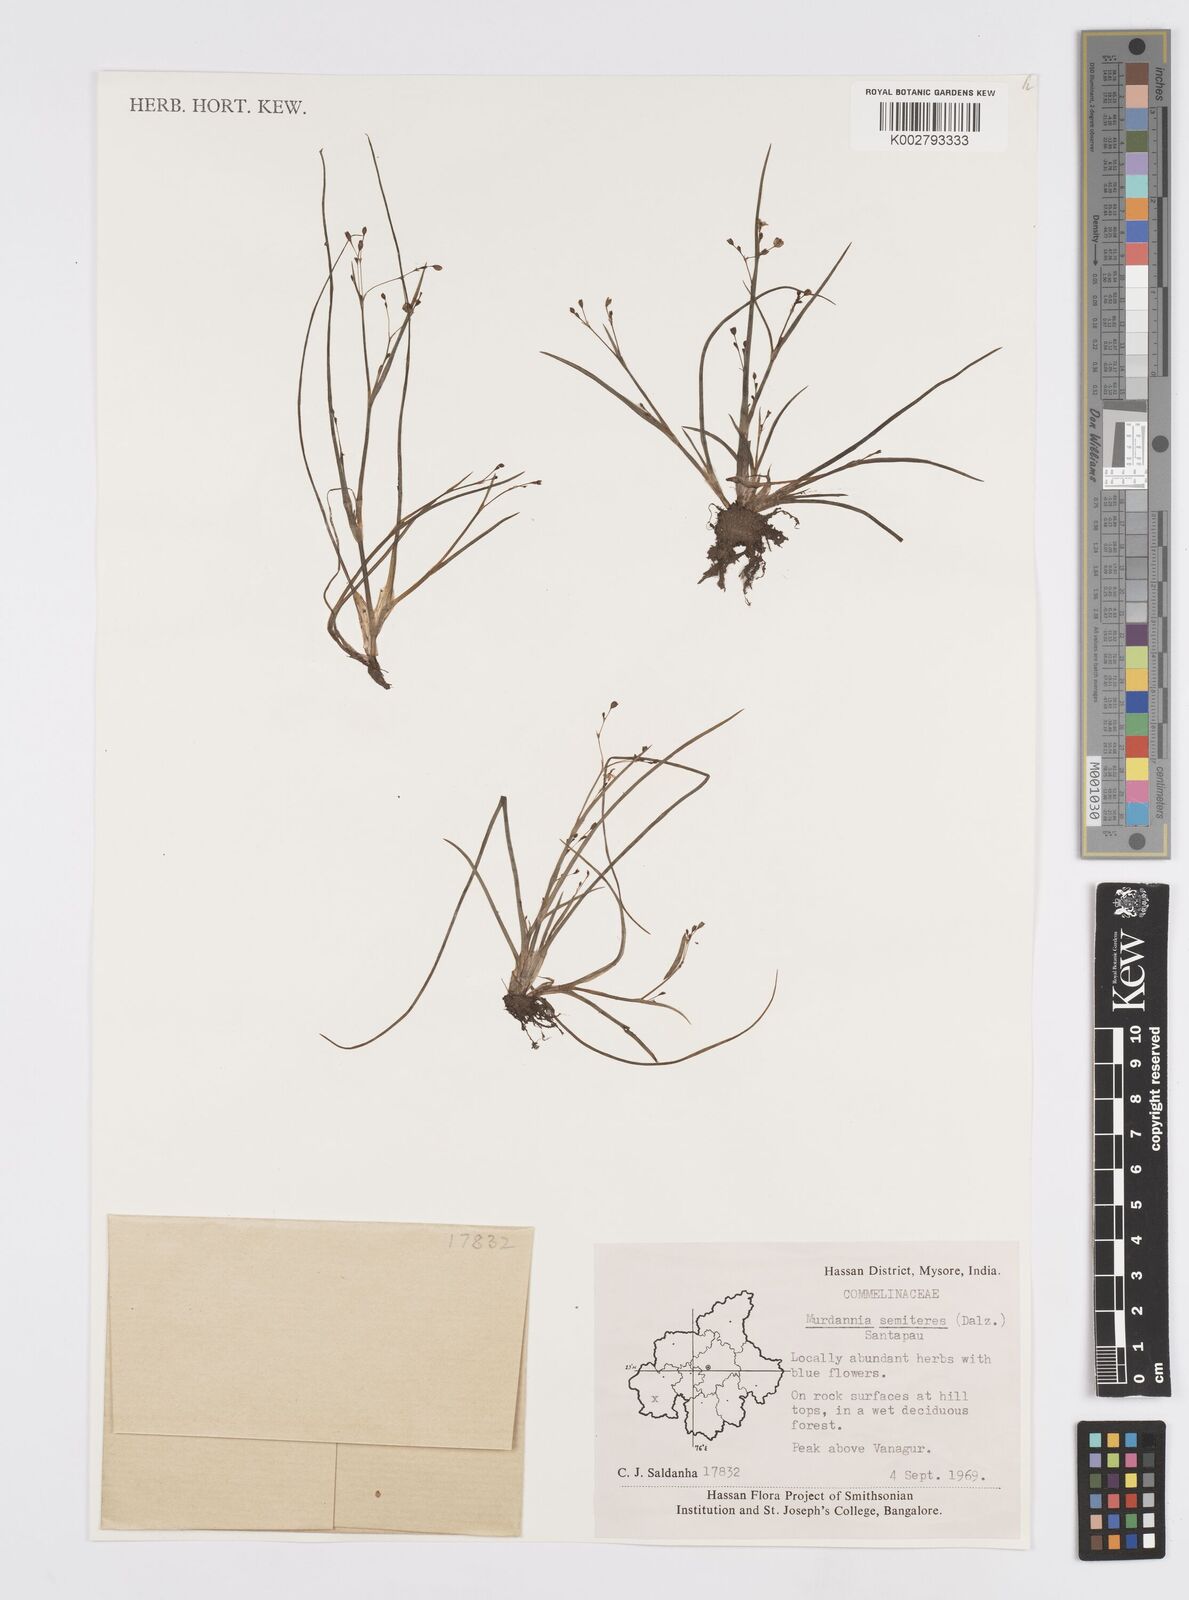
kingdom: Plantae
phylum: Tracheophyta
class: Liliopsida
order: Commelinales
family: Commelinaceae
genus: Murdannia
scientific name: Murdannia semiteres
